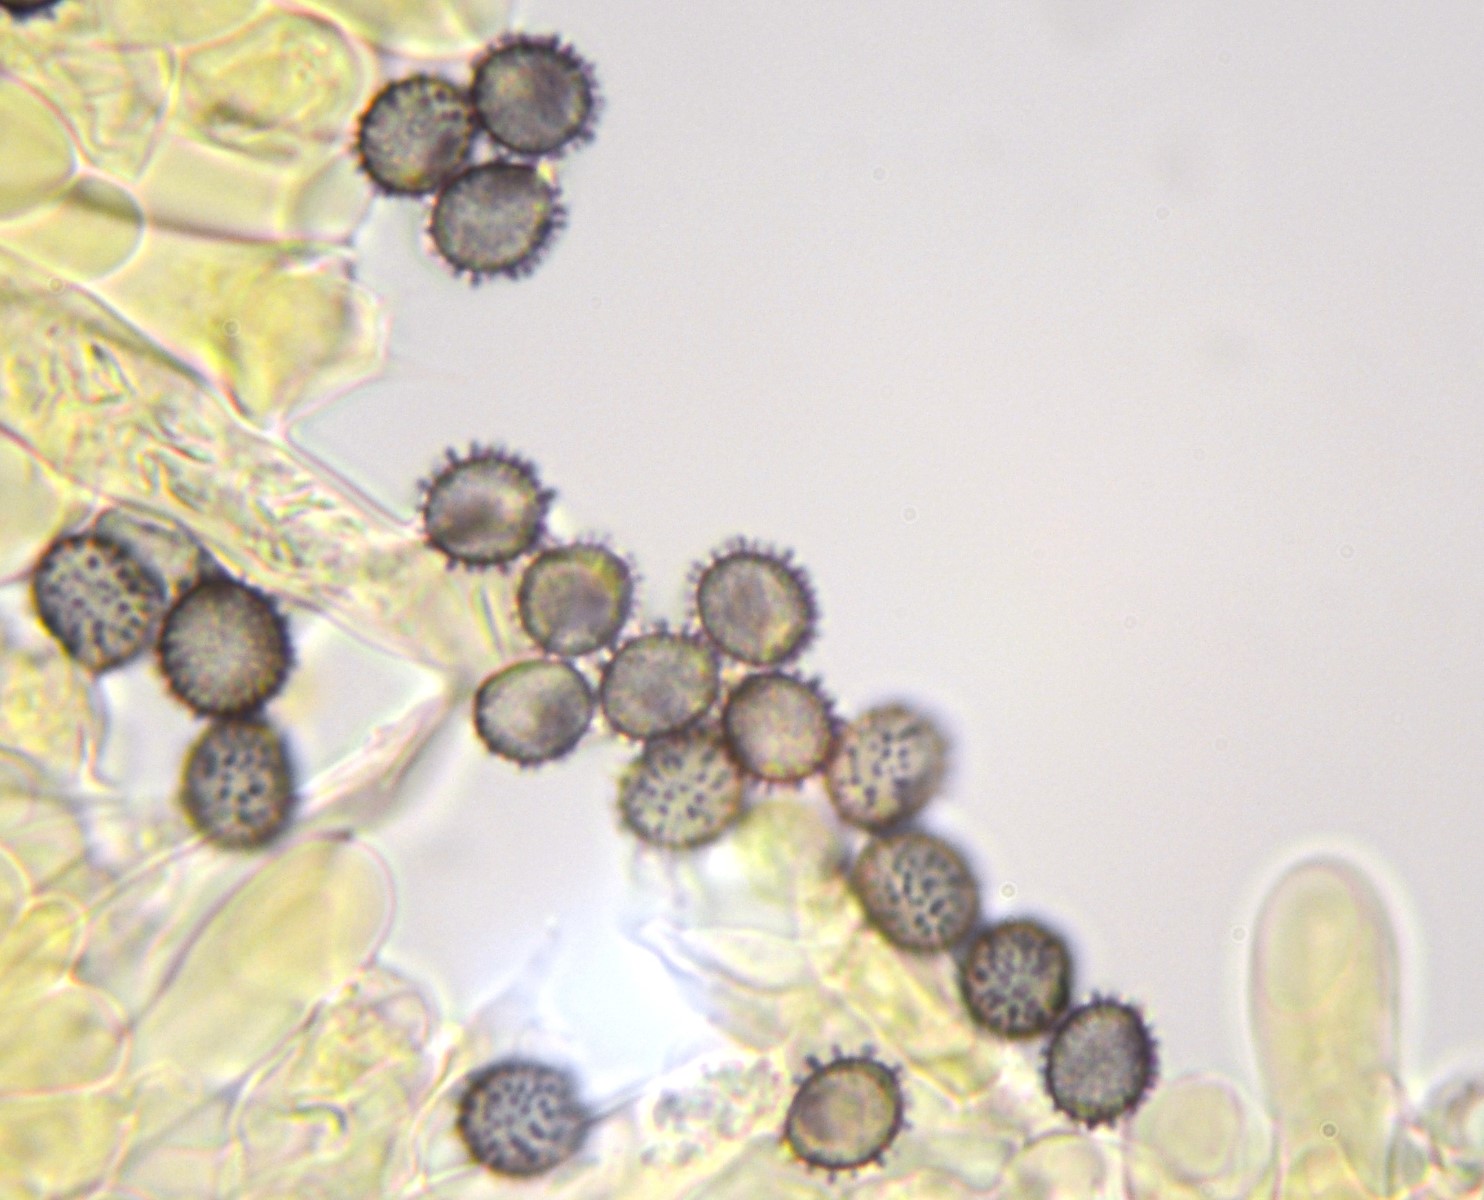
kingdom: Fungi
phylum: Basidiomycota
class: Agaricomycetes
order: Russulales
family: Russulaceae
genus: Russula
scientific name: Russula maculata
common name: plettet skørhat
